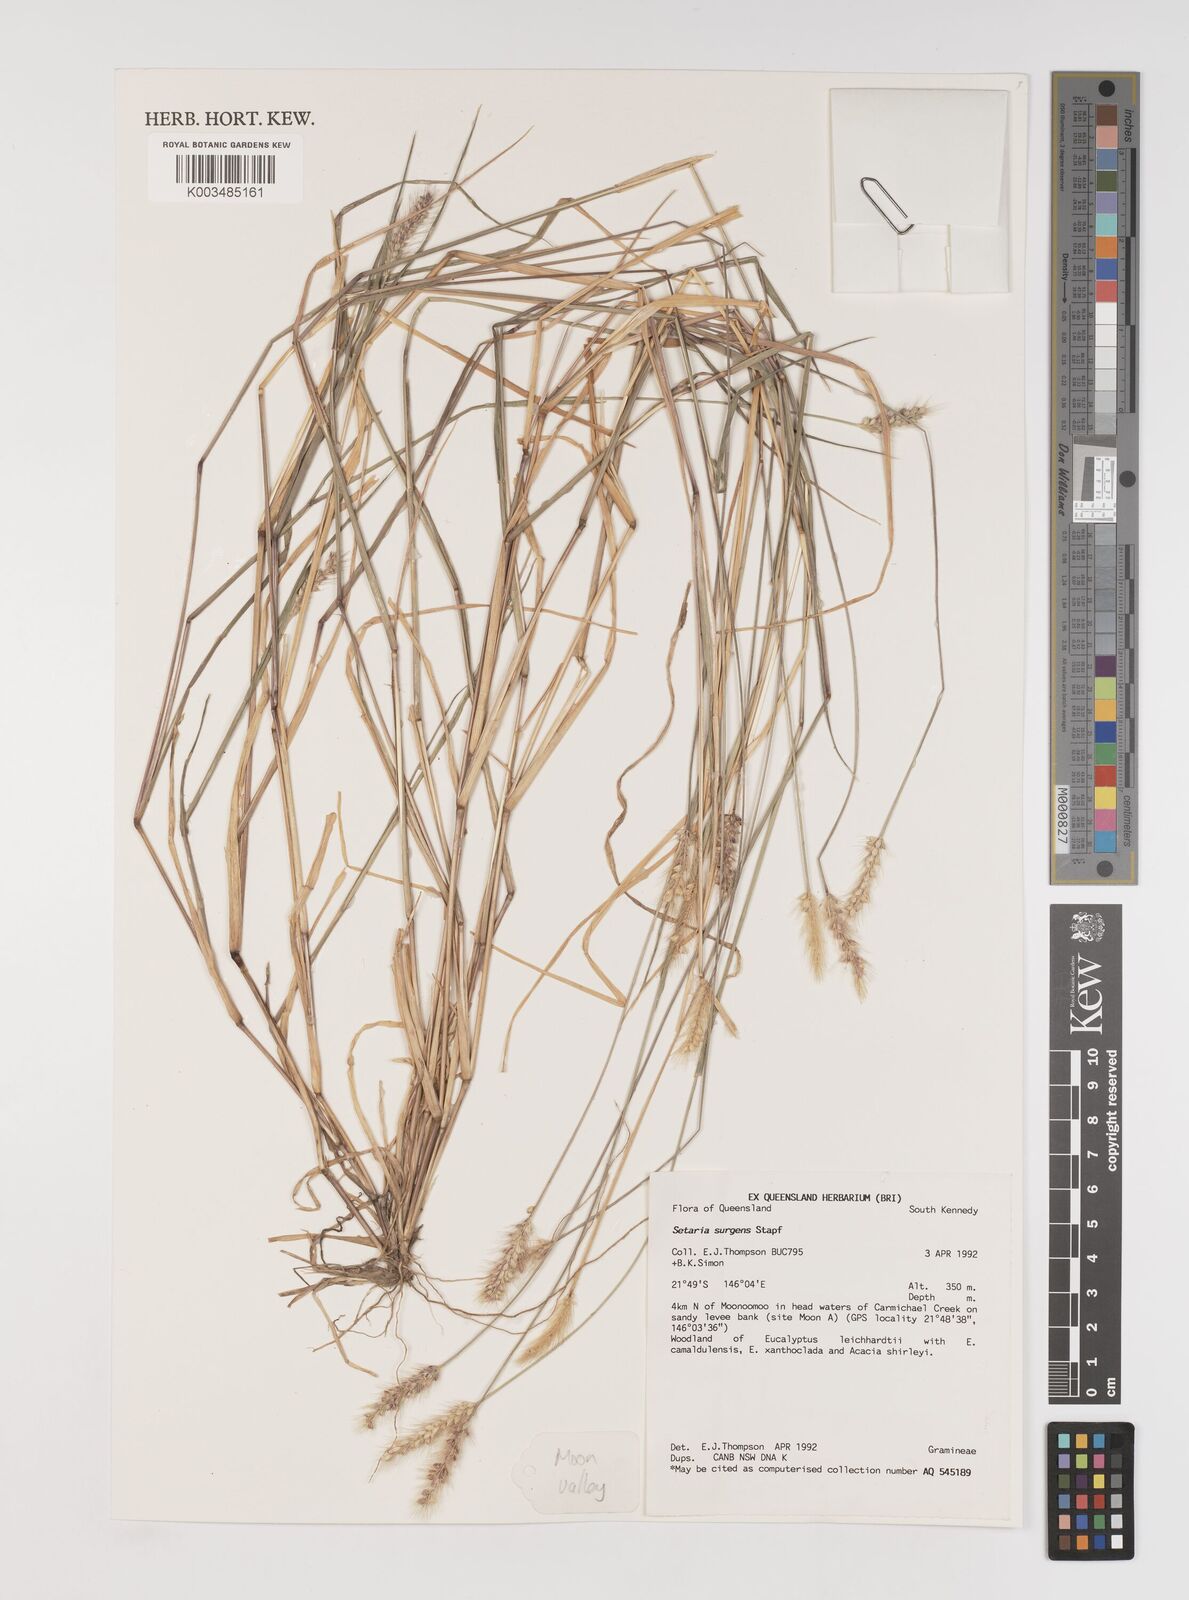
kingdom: Plantae
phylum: Tracheophyta
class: Liliopsida
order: Poales
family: Poaceae
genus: Setaria
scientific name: Setaria apiculata
